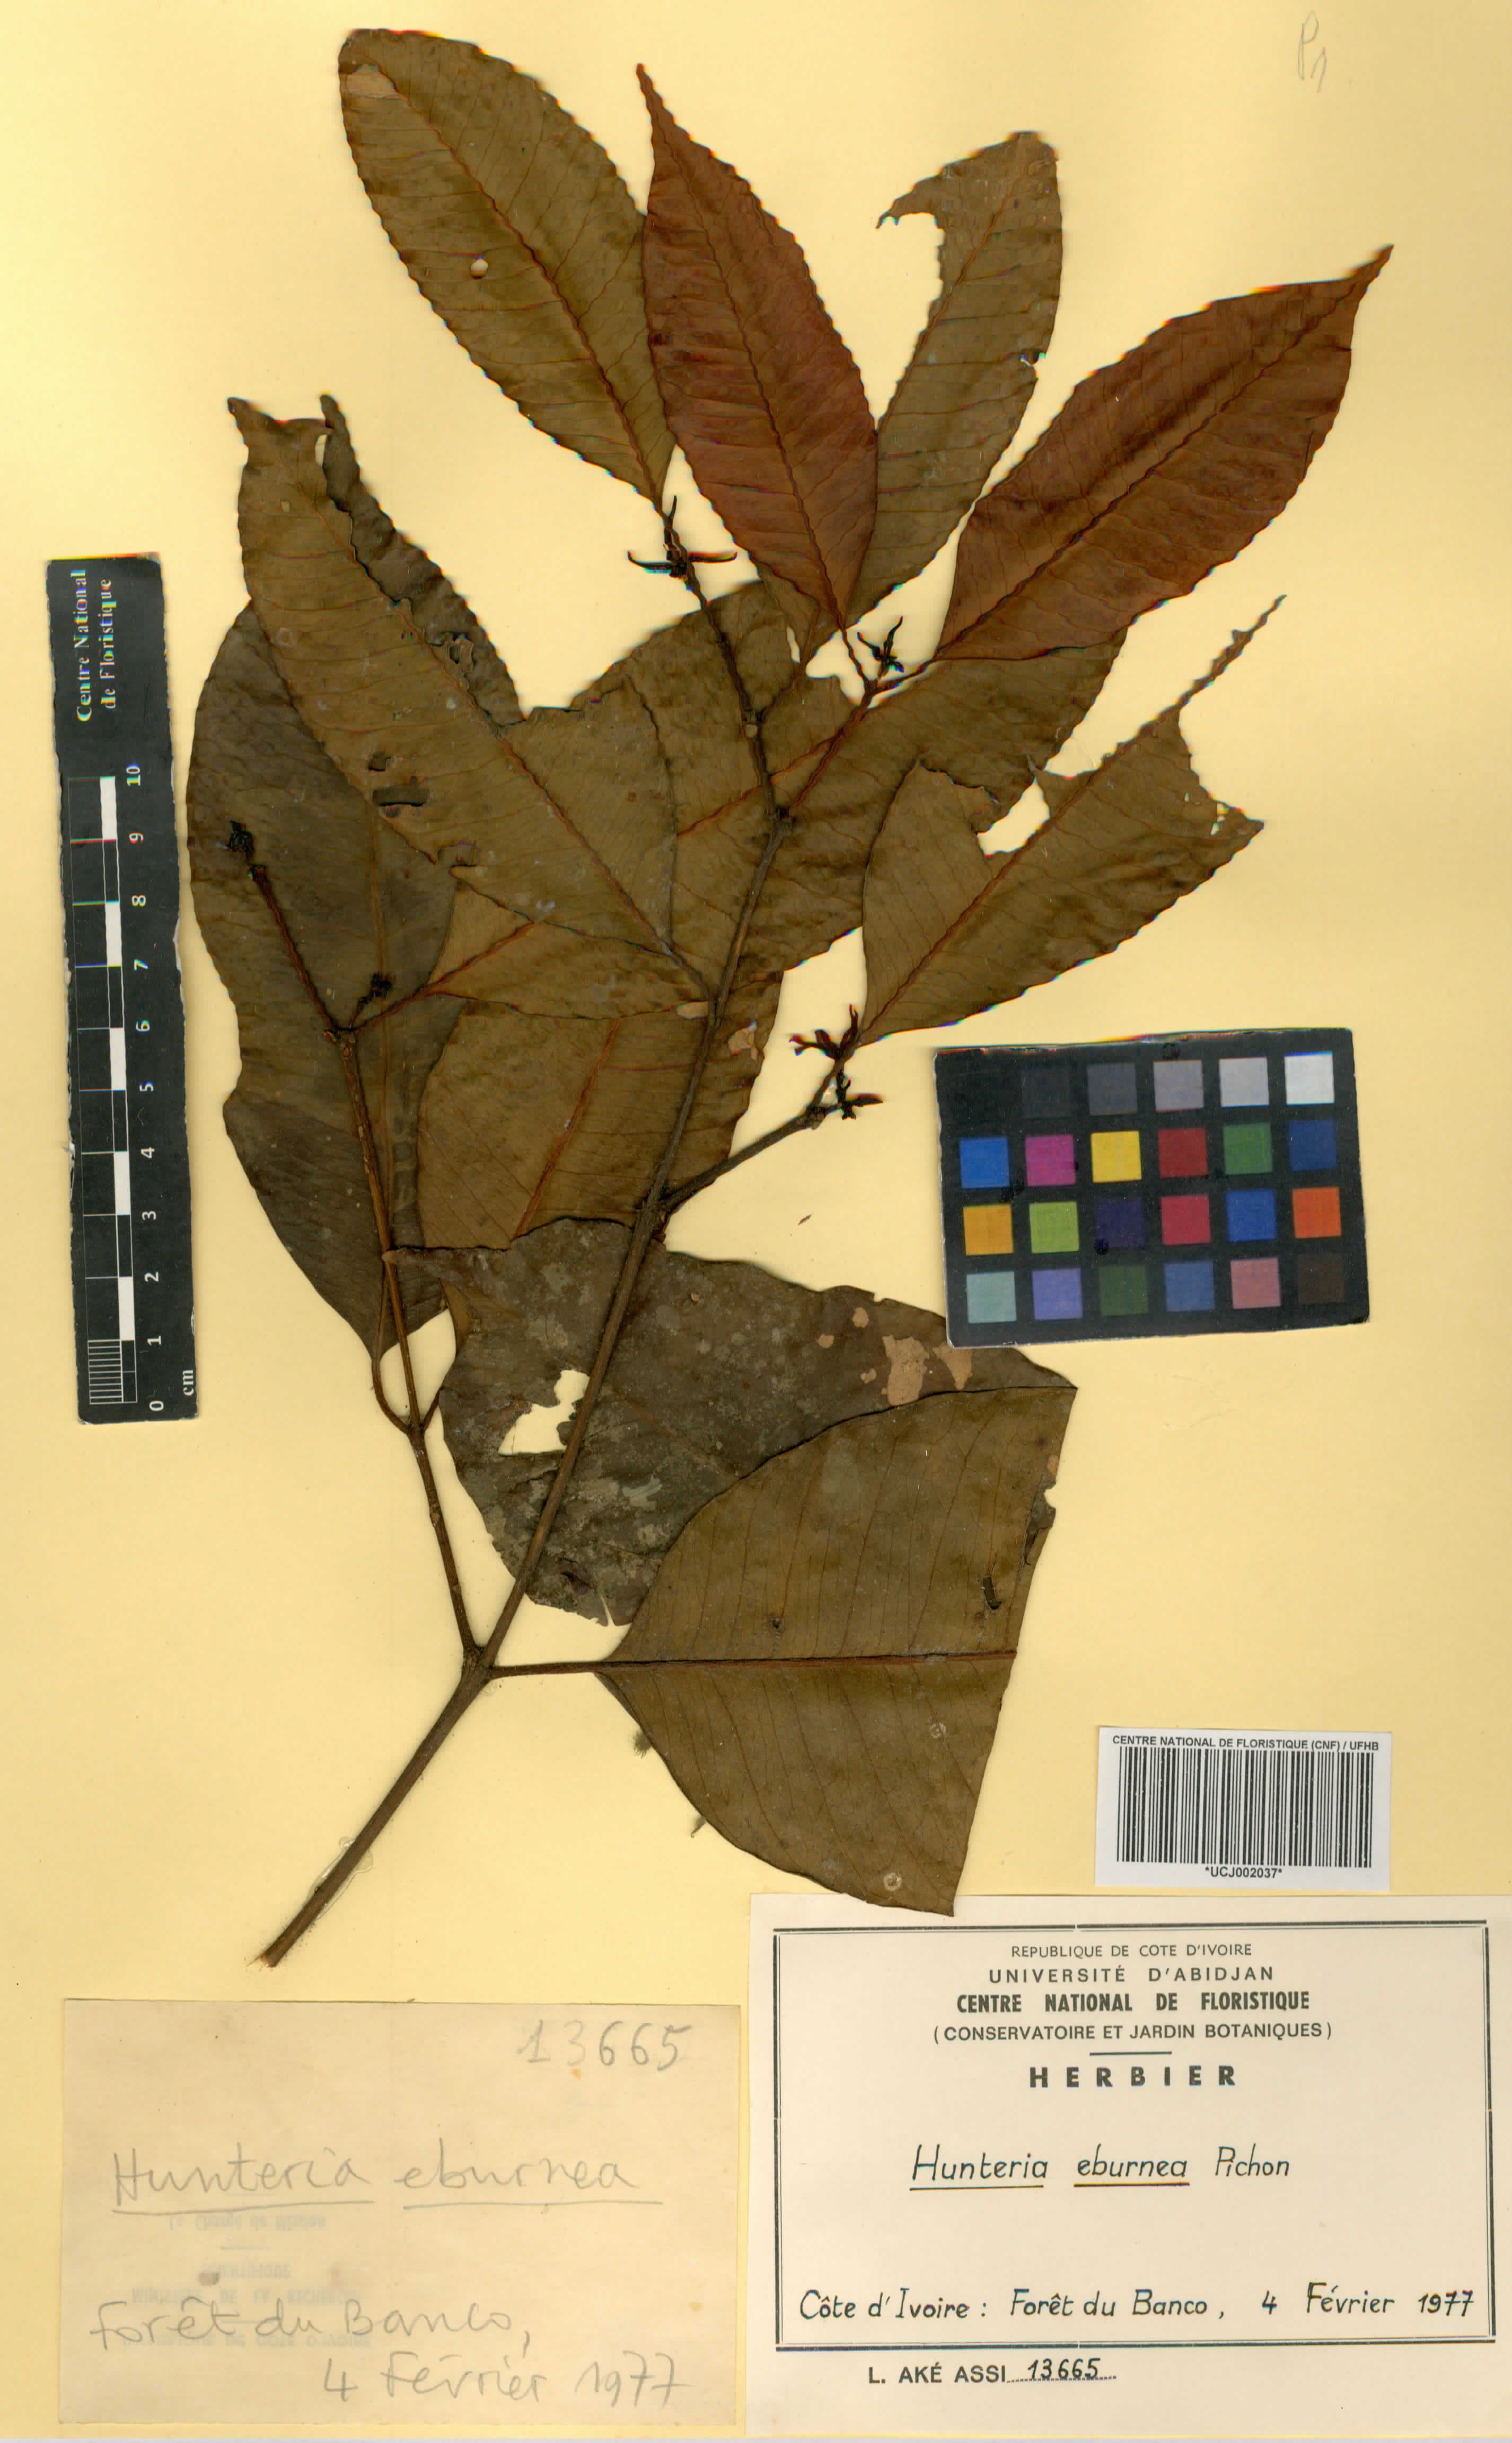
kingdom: Plantae
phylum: Tracheophyta
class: Magnoliopsida
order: Gentianales
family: Apocynaceae
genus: Hunteria
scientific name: Hunteria umbellata
